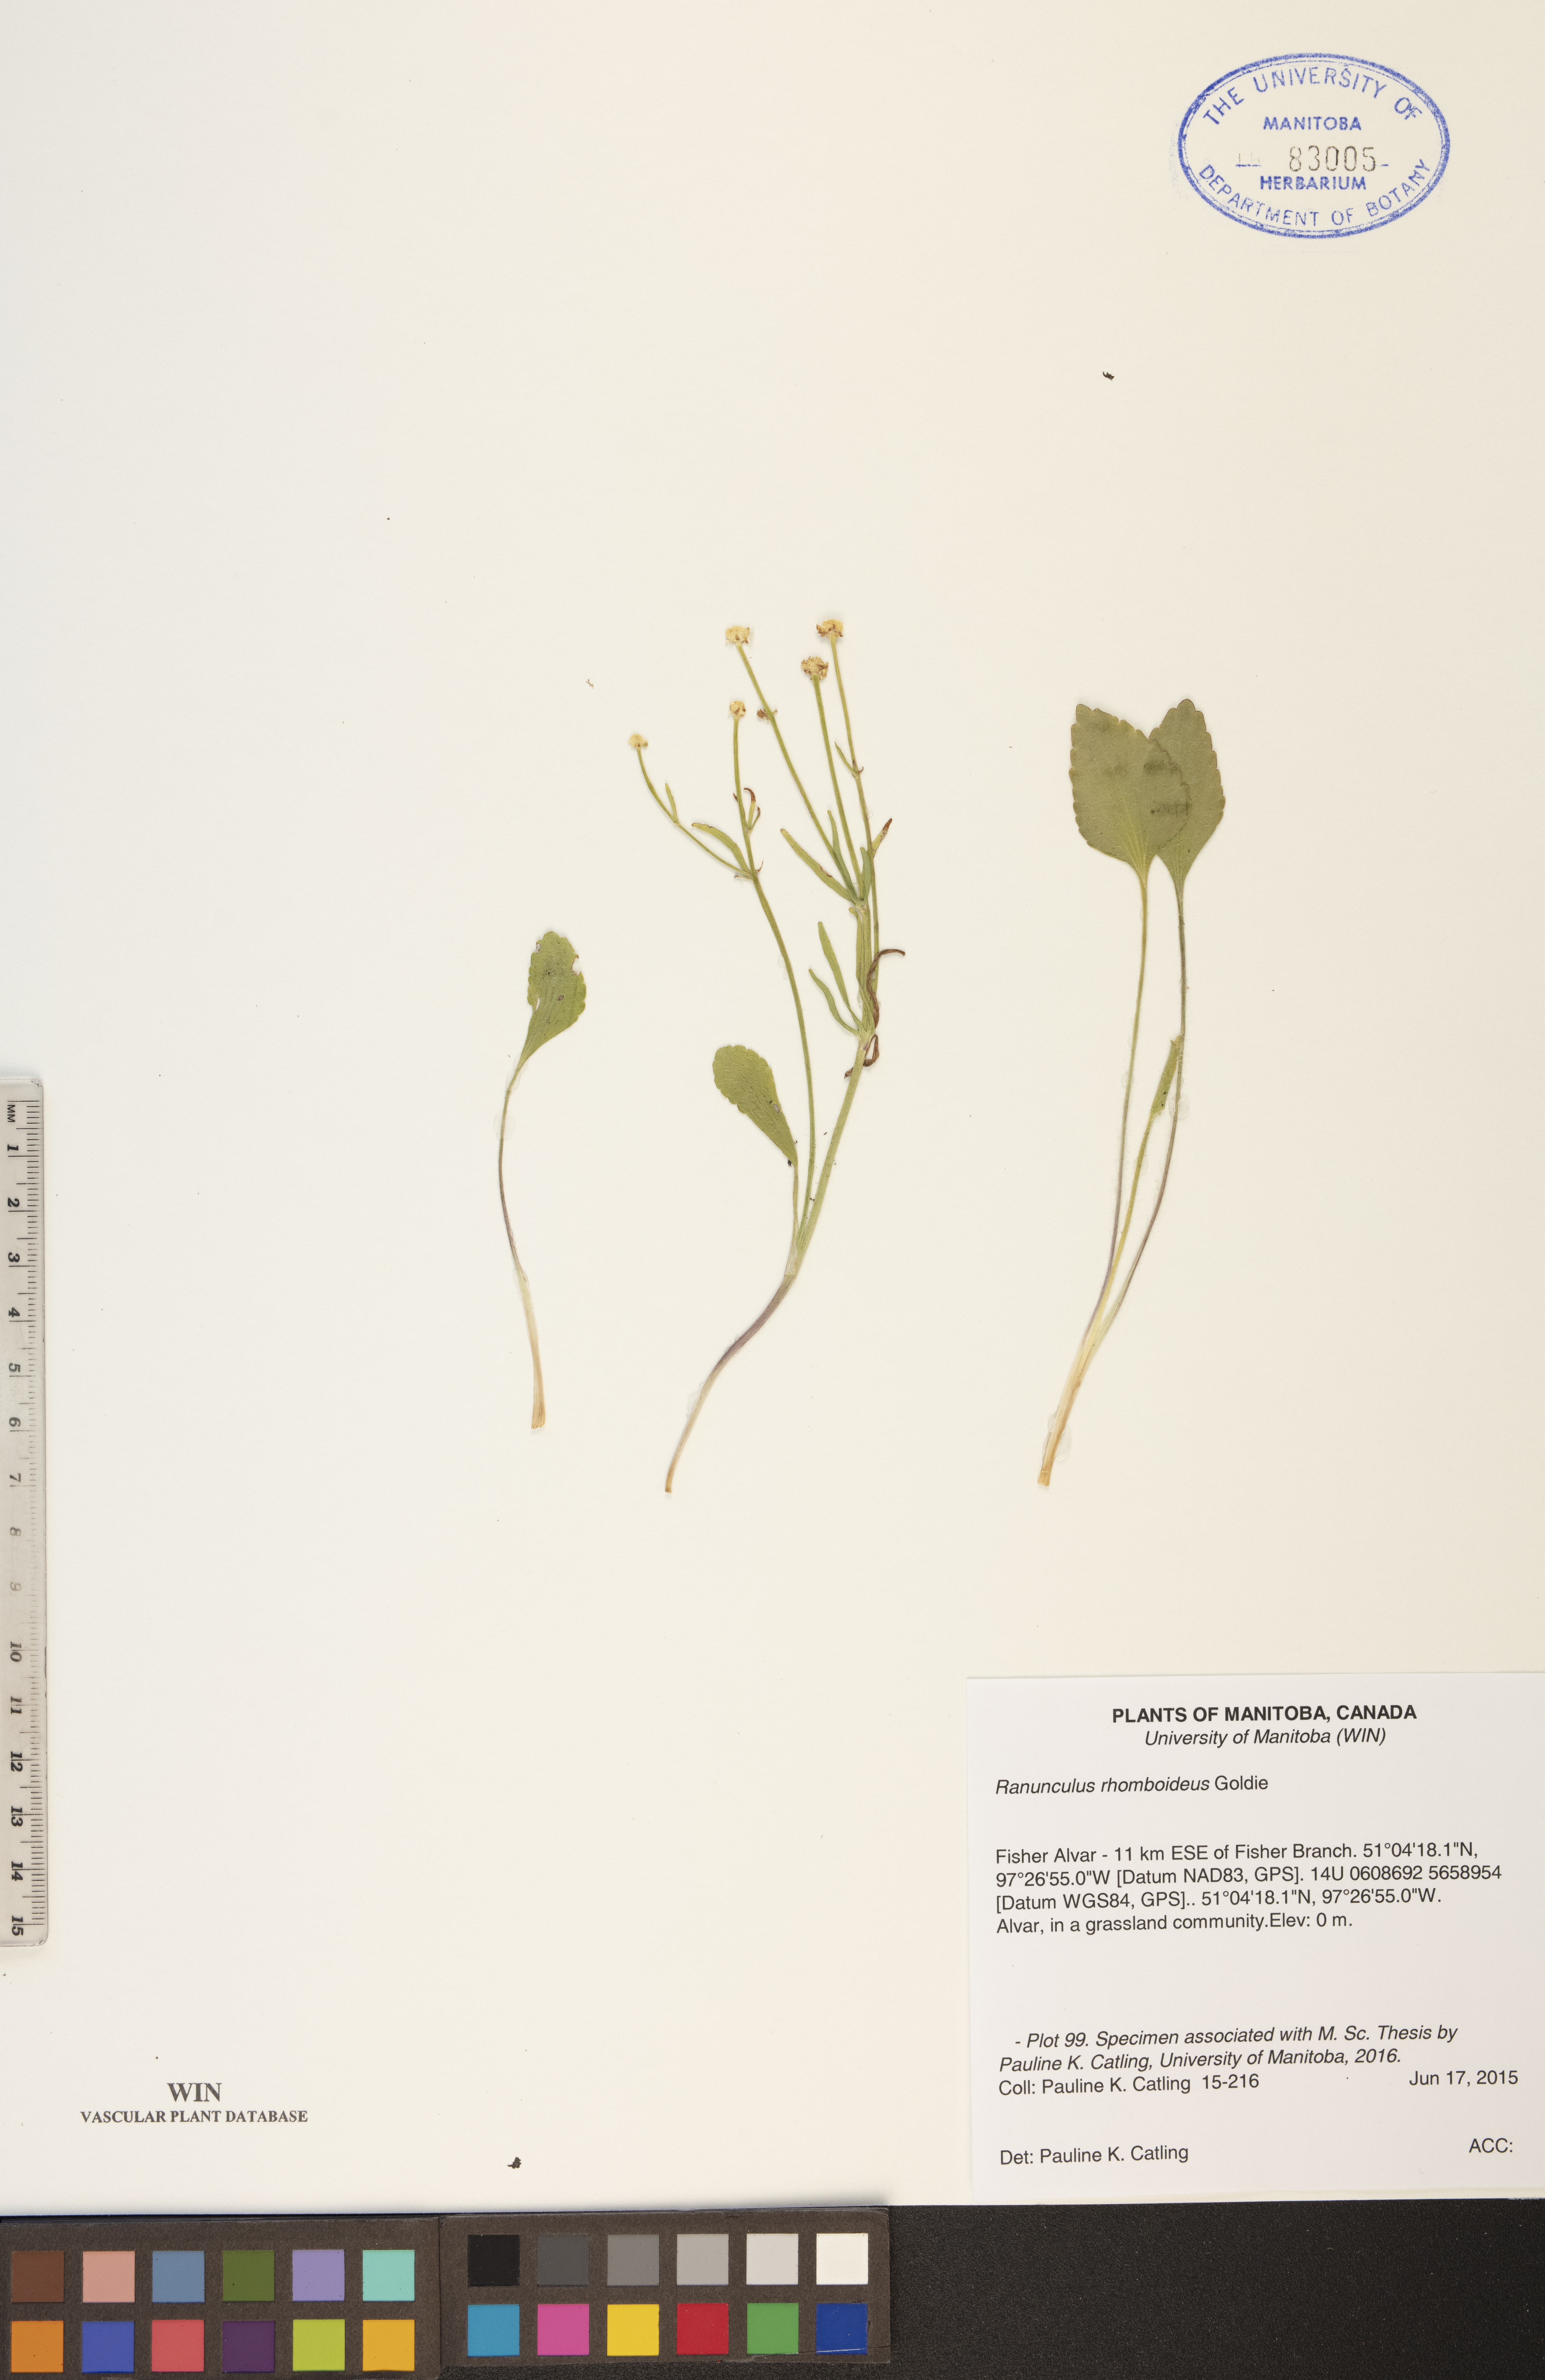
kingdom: Plantae
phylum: Tracheophyta
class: Magnoliopsida
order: Ranunculales
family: Ranunculaceae
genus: Ranunculus
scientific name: Ranunculus rhomboideus
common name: Prairie buttercup
